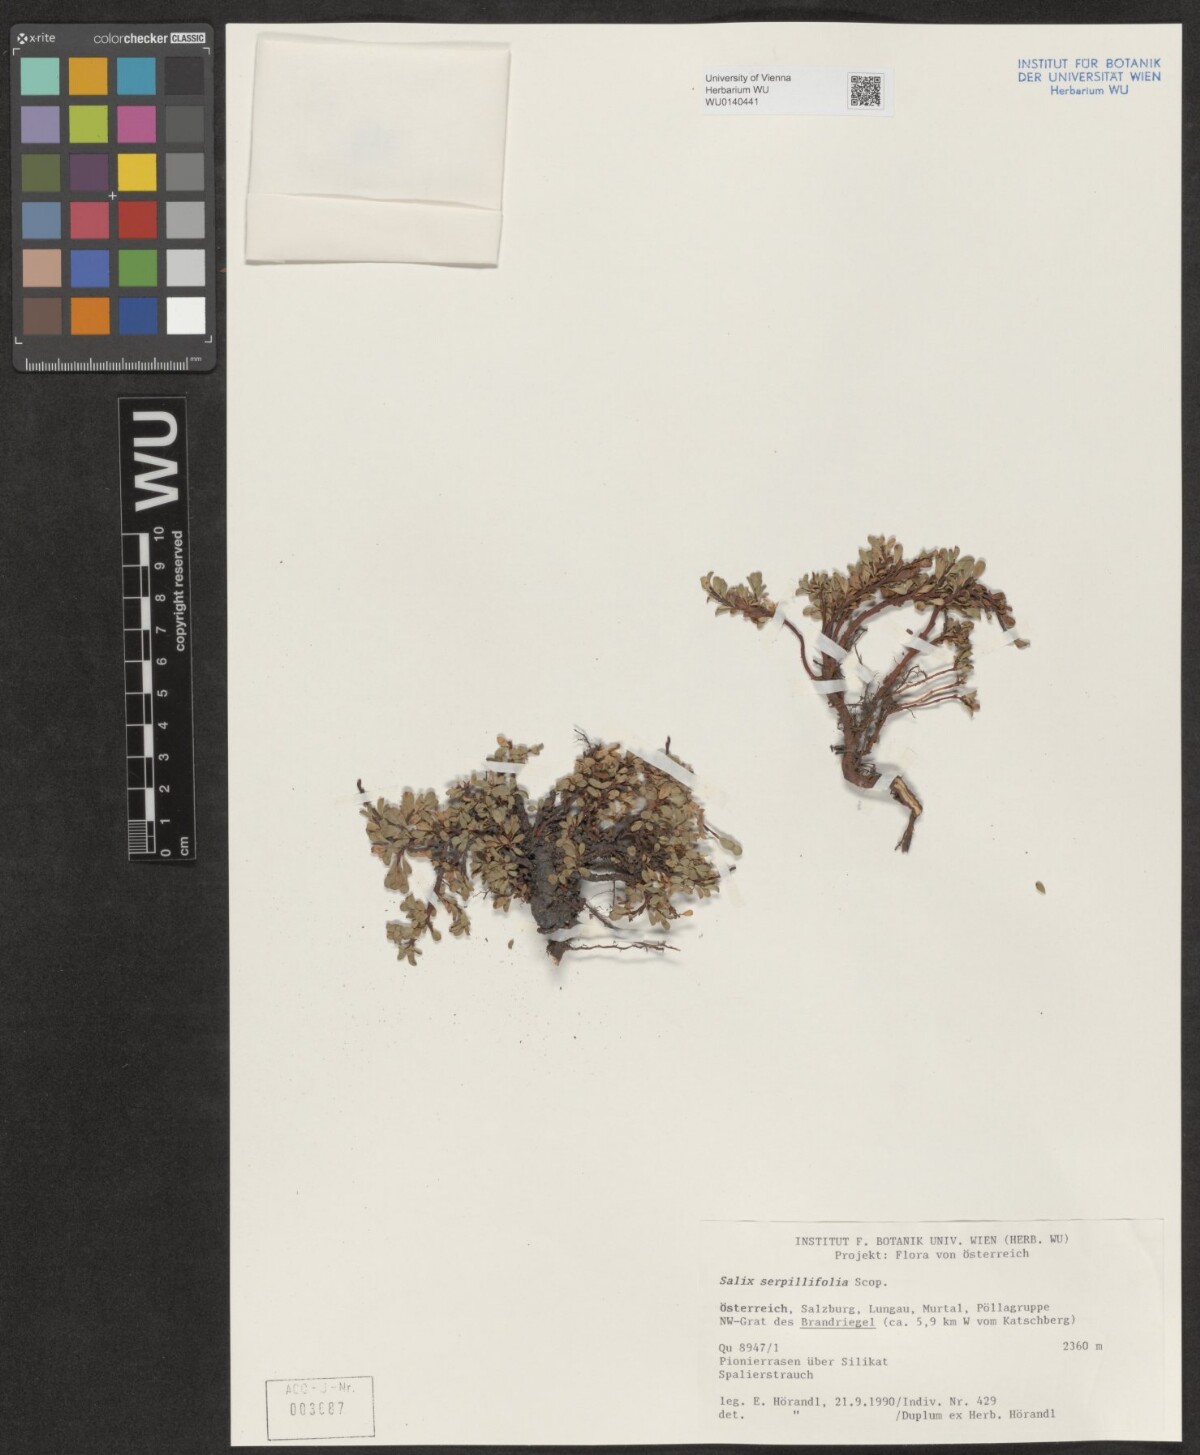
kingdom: Plantae
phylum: Tracheophyta
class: Magnoliopsida
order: Malpighiales
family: Salicaceae
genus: Salix
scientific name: Salix serpillifolia
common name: Thyme-leaf willow
